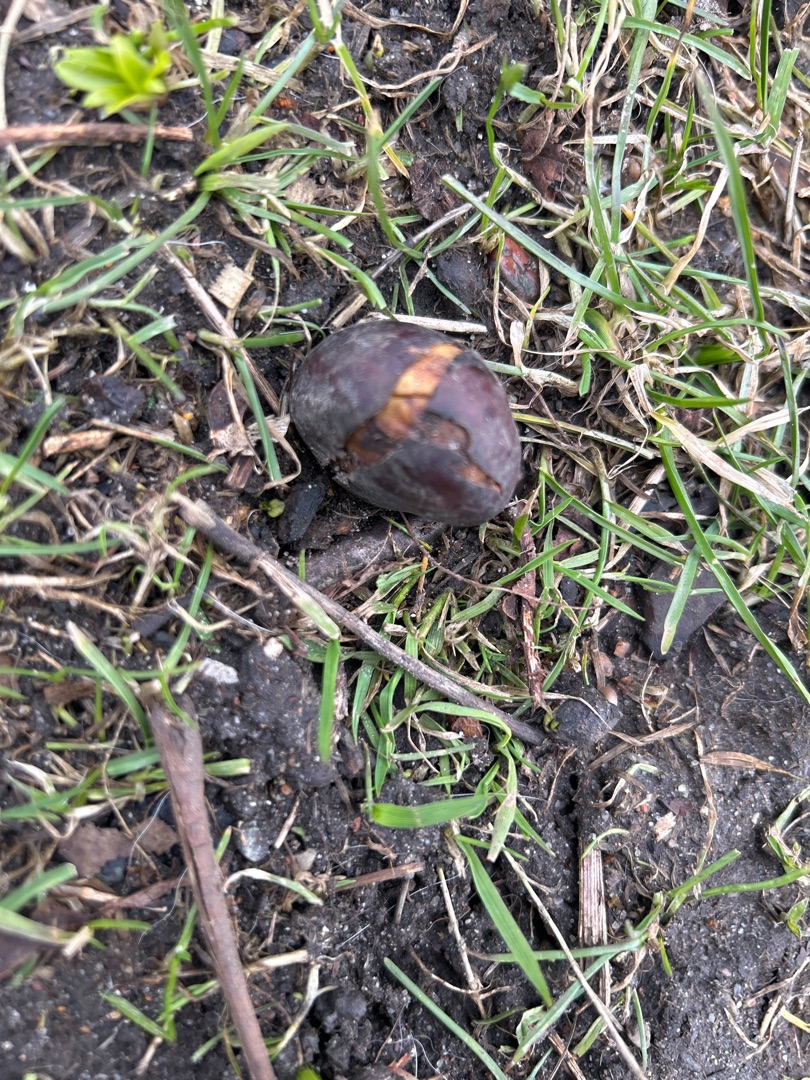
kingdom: Plantae
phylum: Tracheophyta
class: Magnoliopsida
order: Sapindales
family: Sapindaceae
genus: Aesculus
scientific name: Aesculus hippocastanum
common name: Hestekastanie
